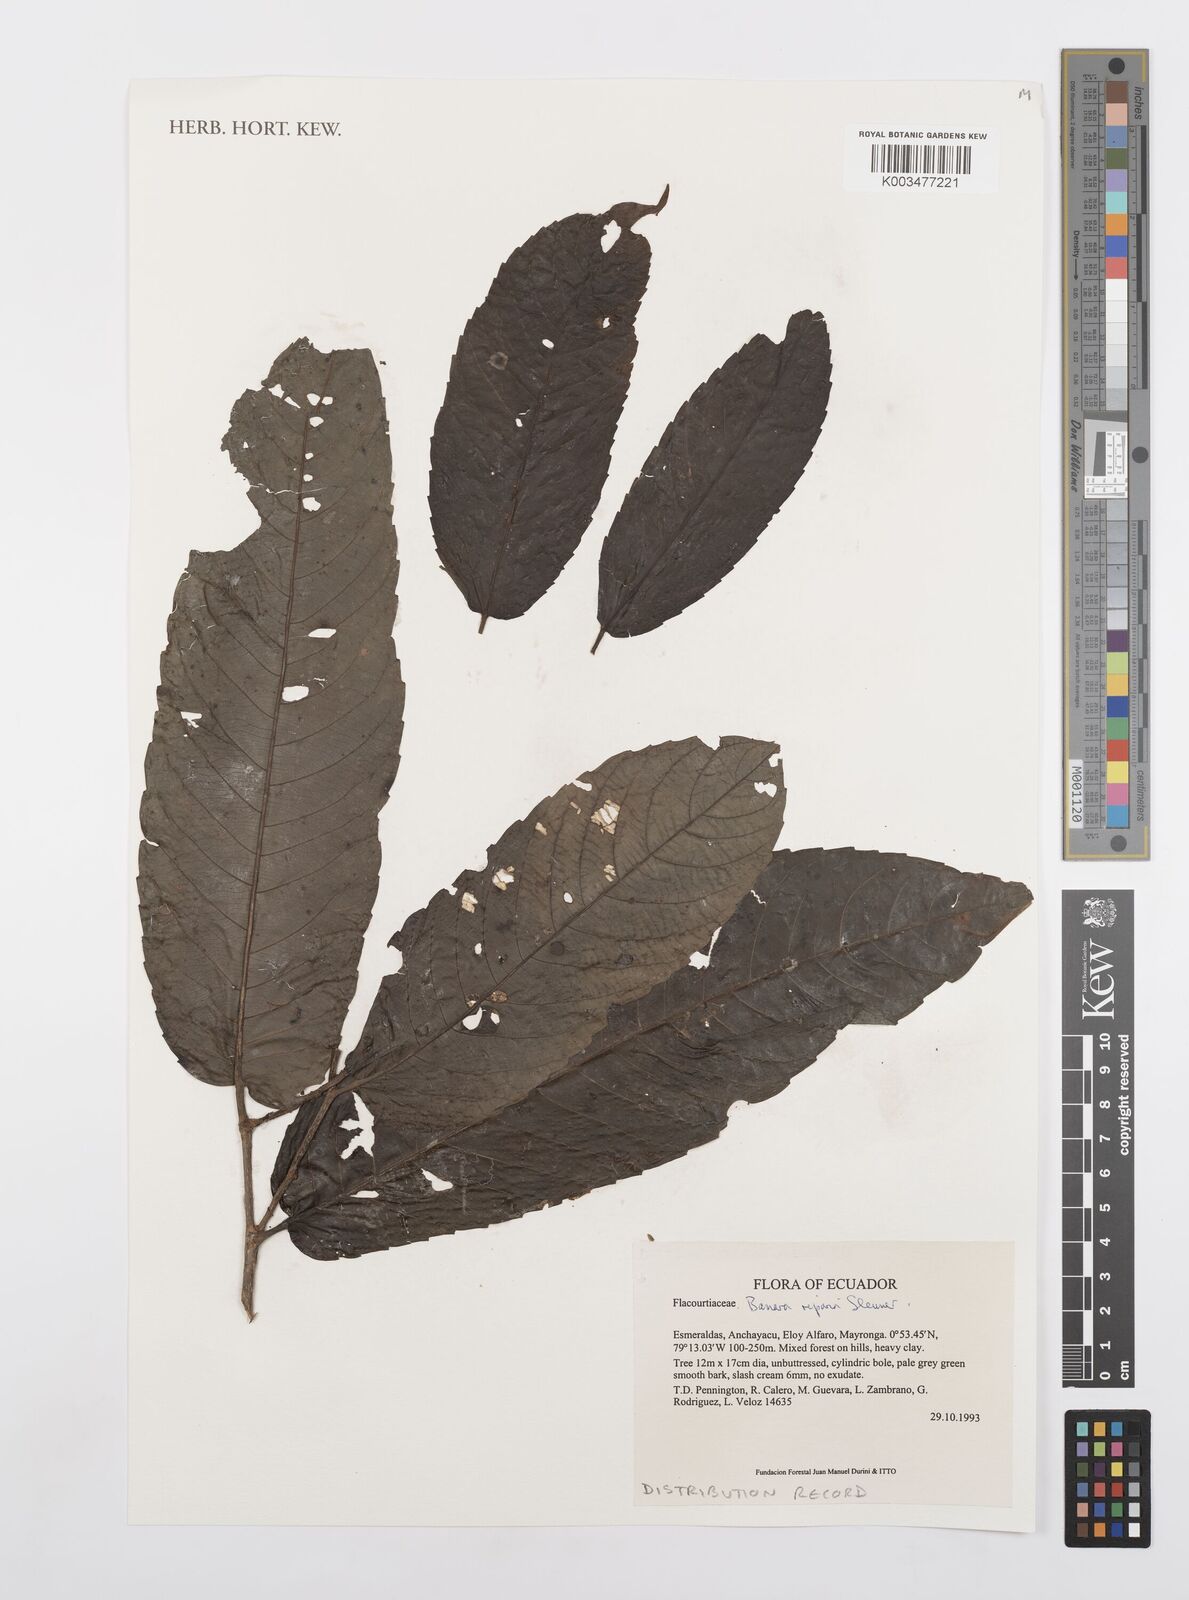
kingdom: Plantae
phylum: Tracheophyta
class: Magnoliopsida
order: Malpighiales
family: Salicaceae
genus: Banara
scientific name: Banara riparia
